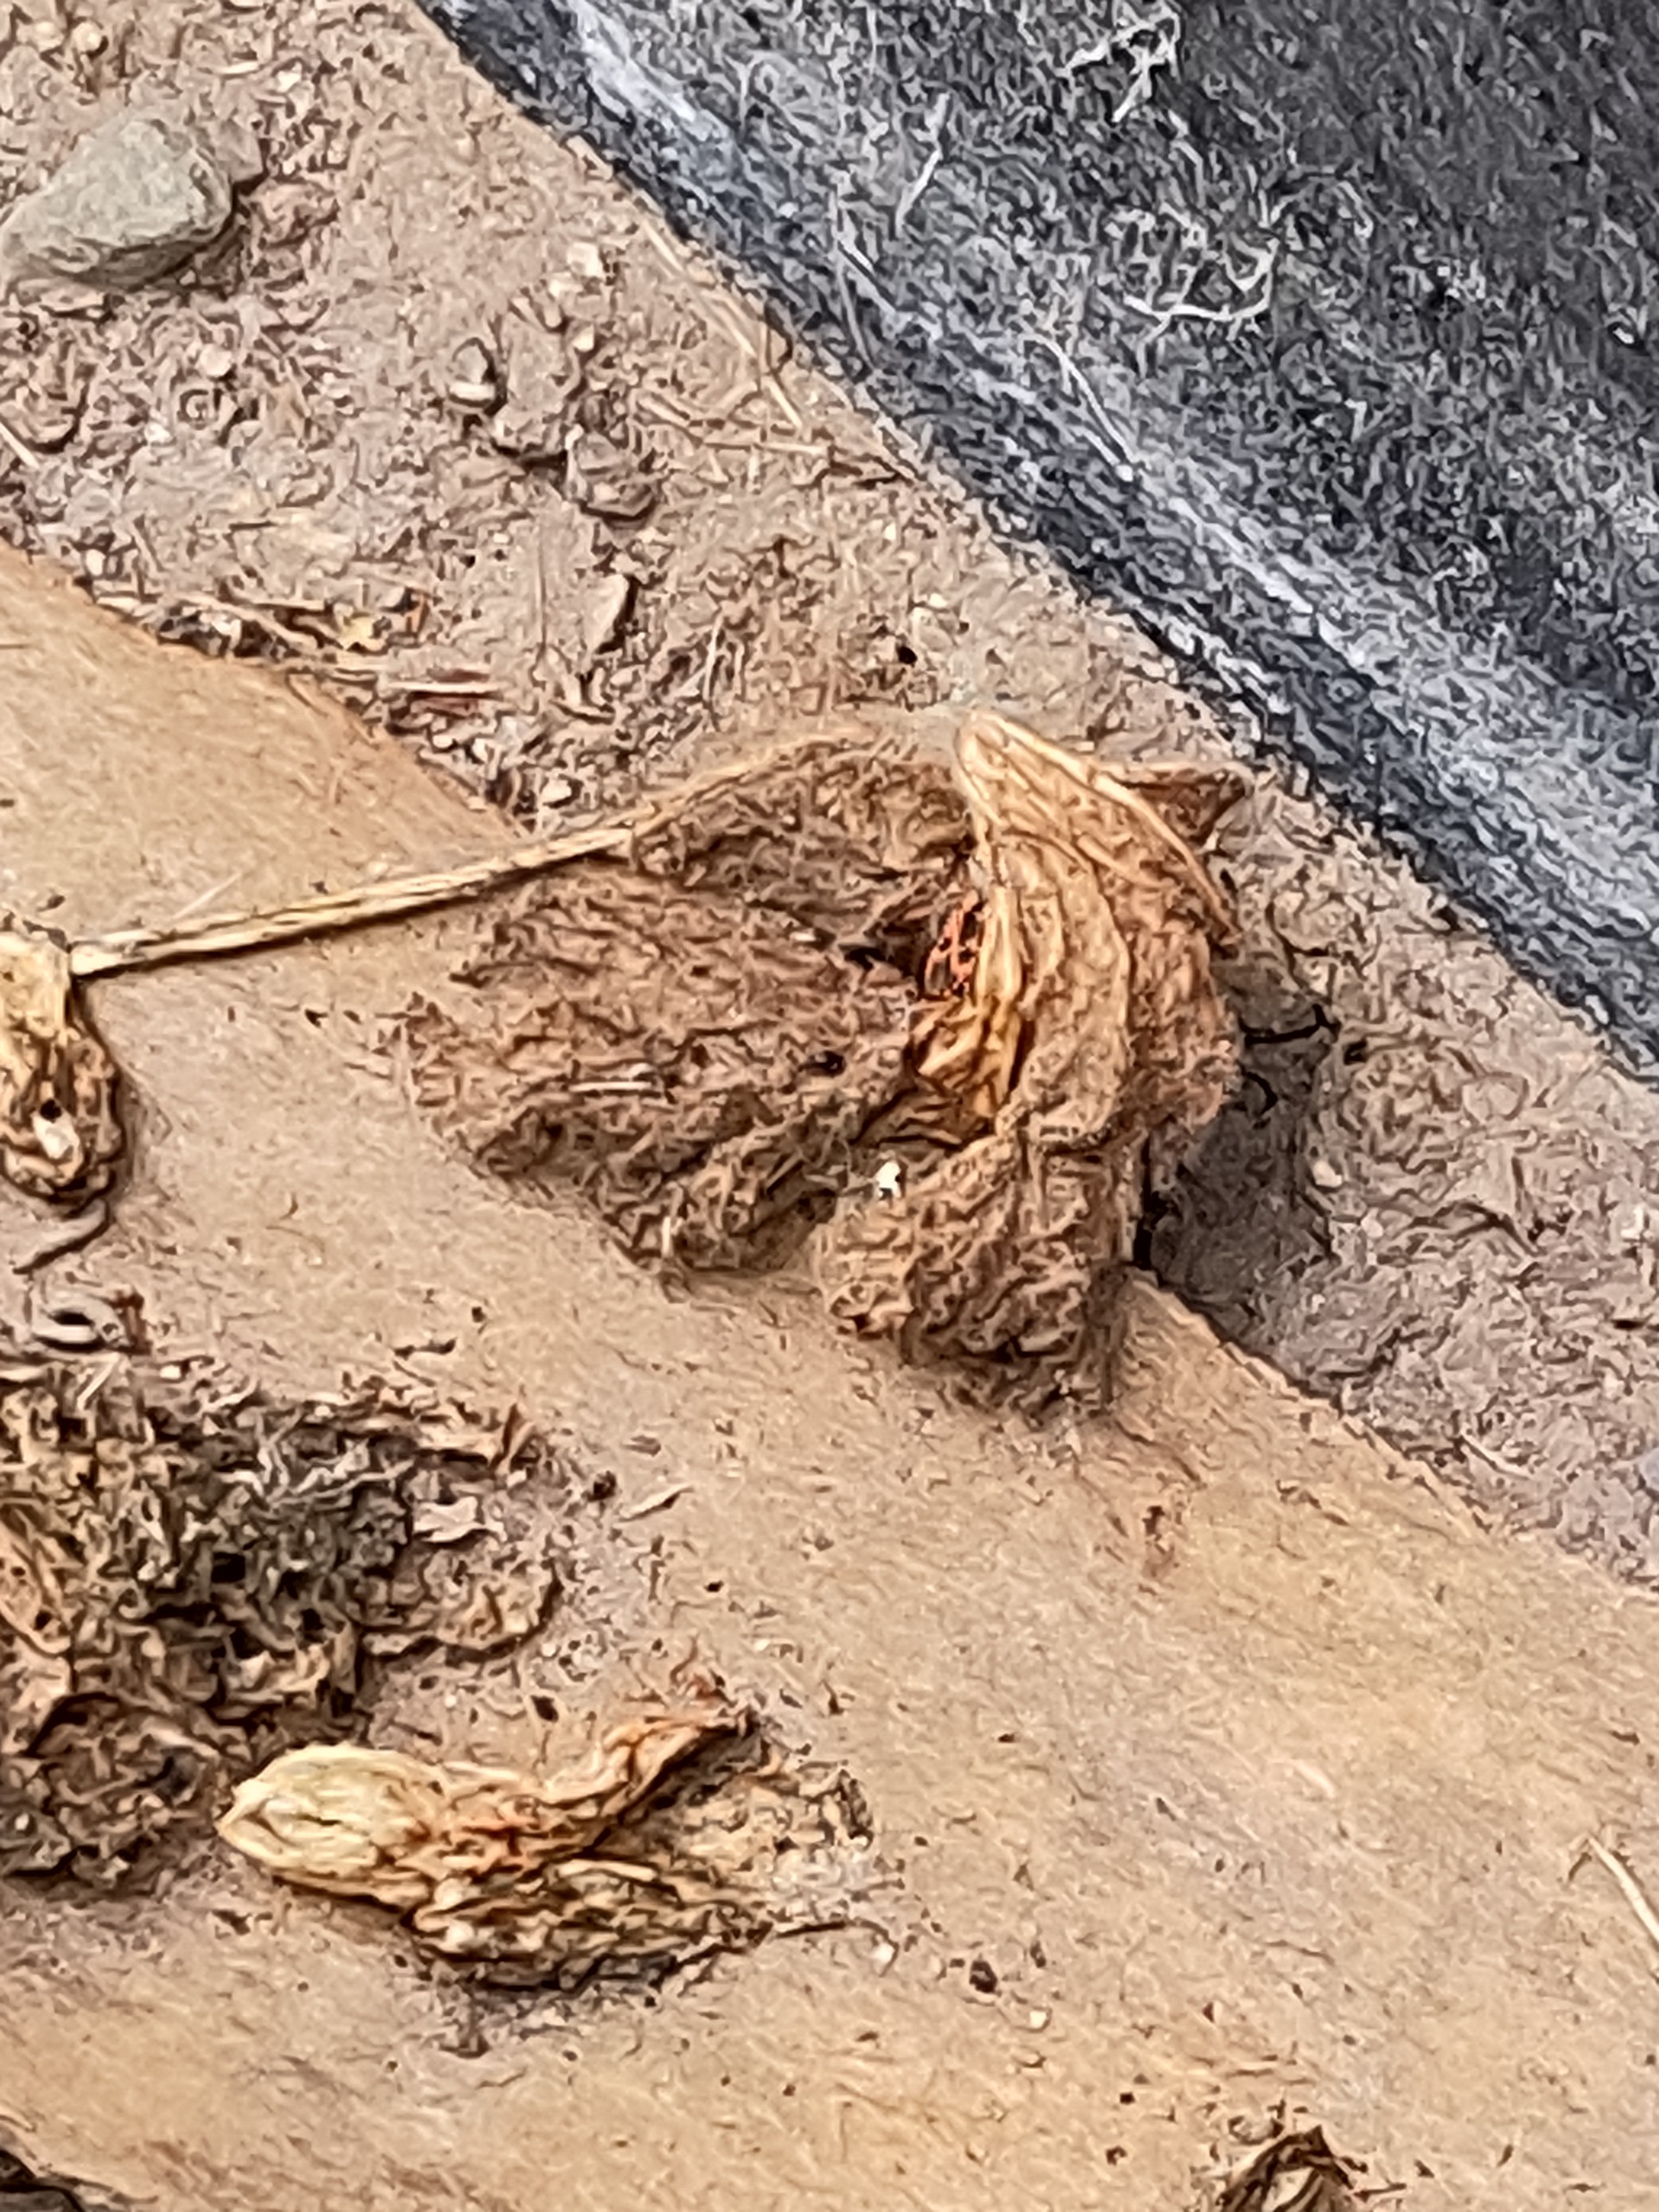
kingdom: Animalia
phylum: Arthropoda
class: Insecta
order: Hemiptera
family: Pyrrhocoridae
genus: Pyrrhocoris
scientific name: Pyrrhocoris apterus
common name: Ildtæge
